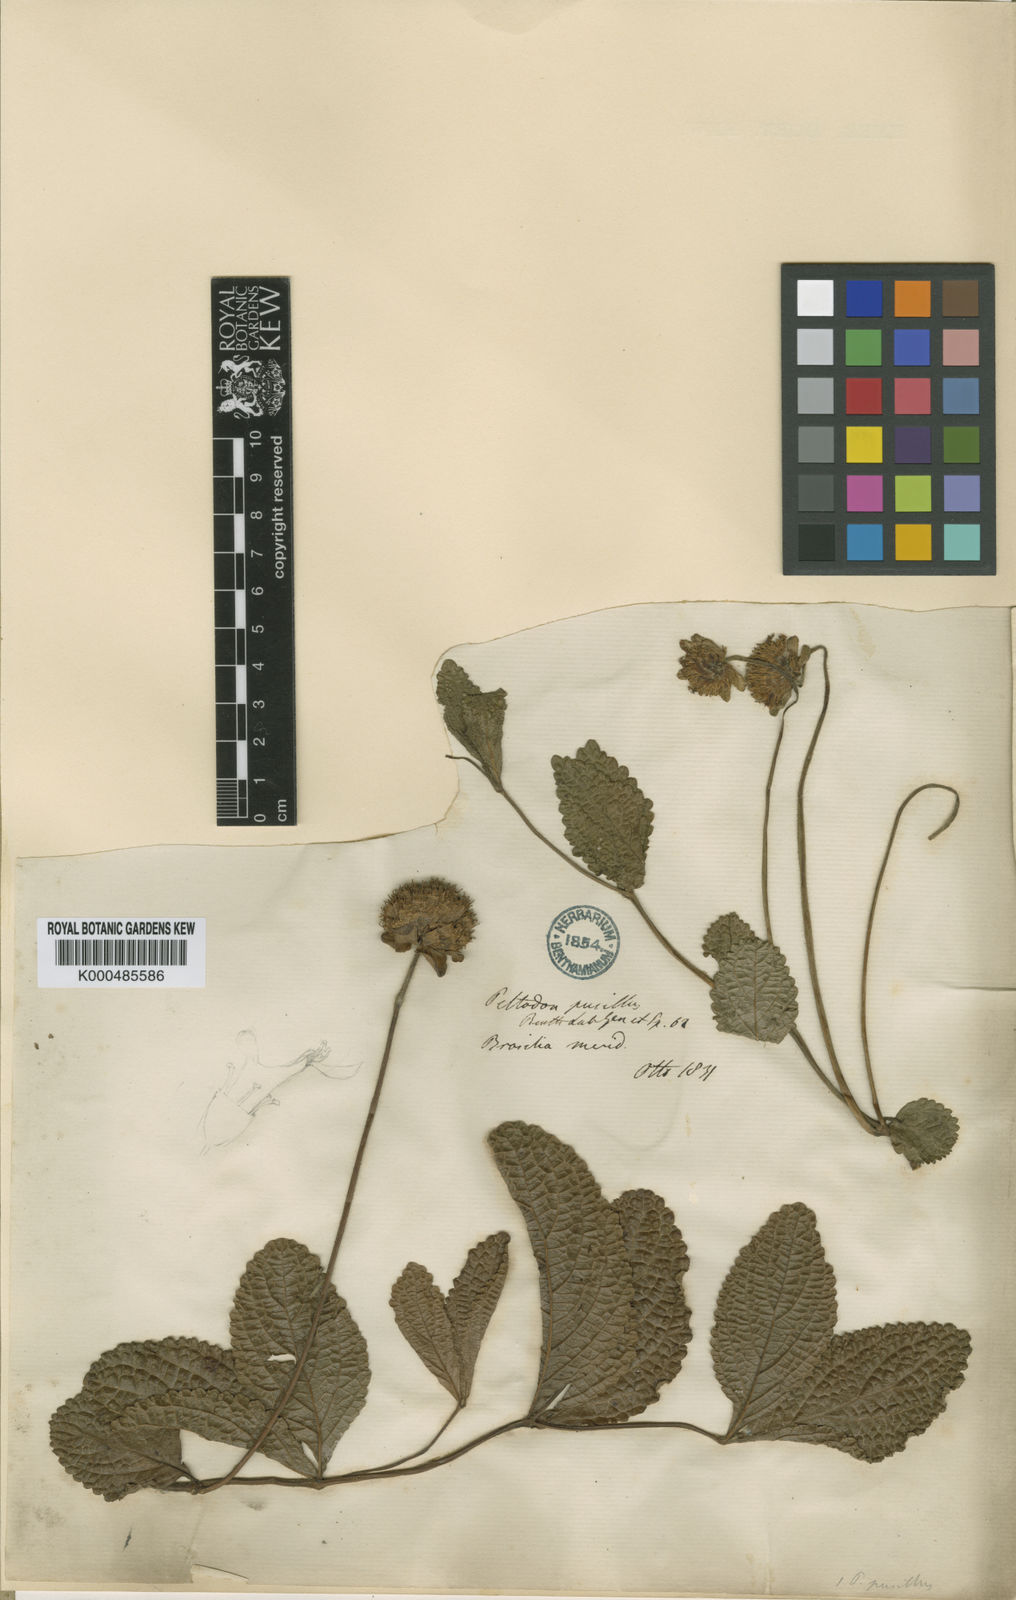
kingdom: Plantae
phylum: Tracheophyta
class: Magnoliopsida
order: Lamiales
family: Lamiaceae
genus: Hyptis
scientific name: Hyptis pusilla
